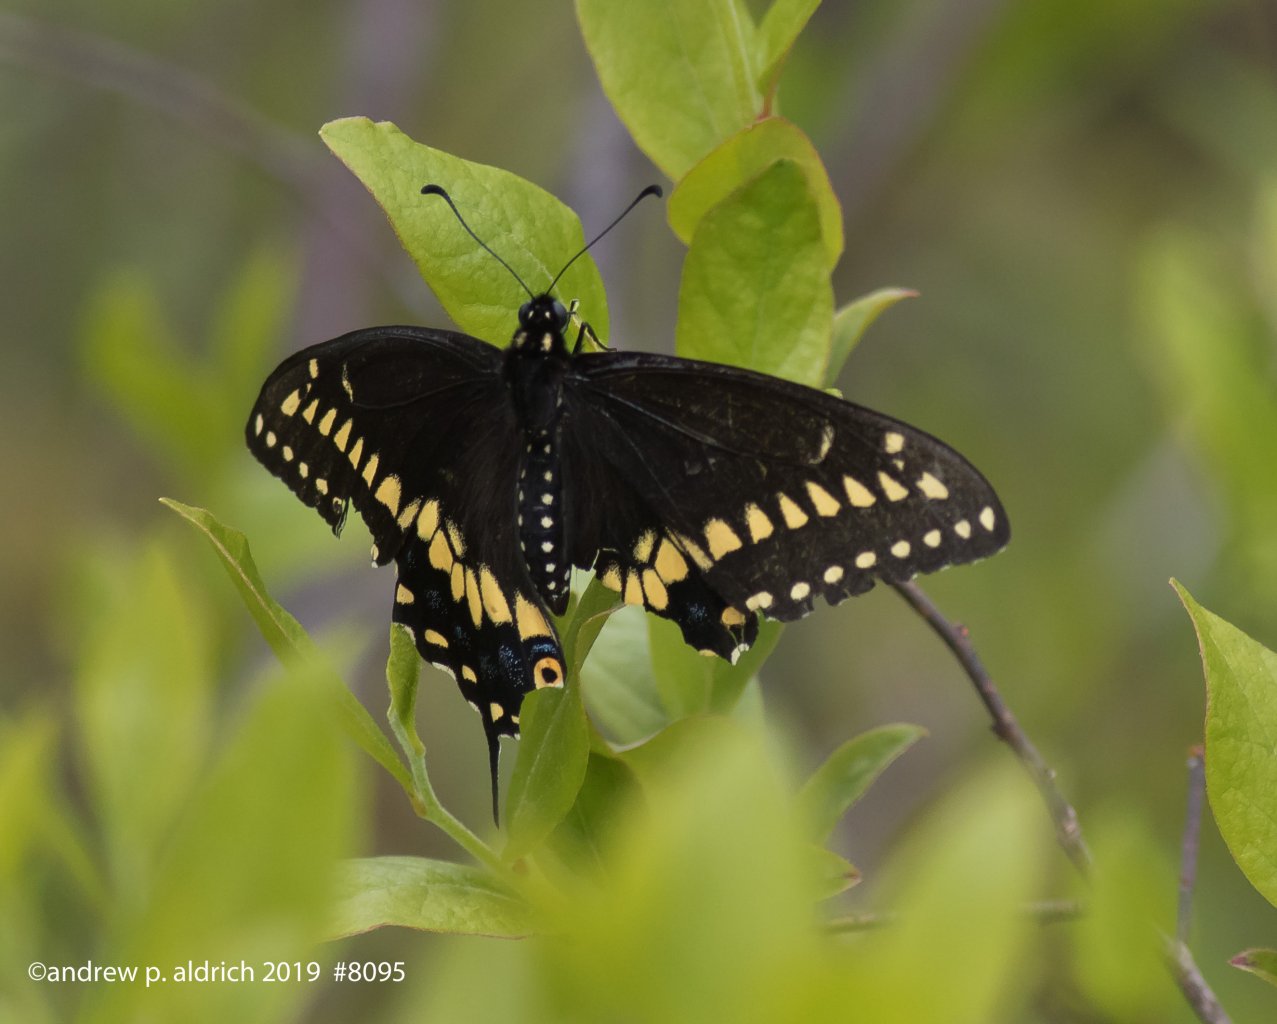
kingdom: Animalia
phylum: Arthropoda
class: Insecta
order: Lepidoptera
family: Papilionidae
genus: Papilio
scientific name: Papilio polyxenes
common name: Black Swallowtail
